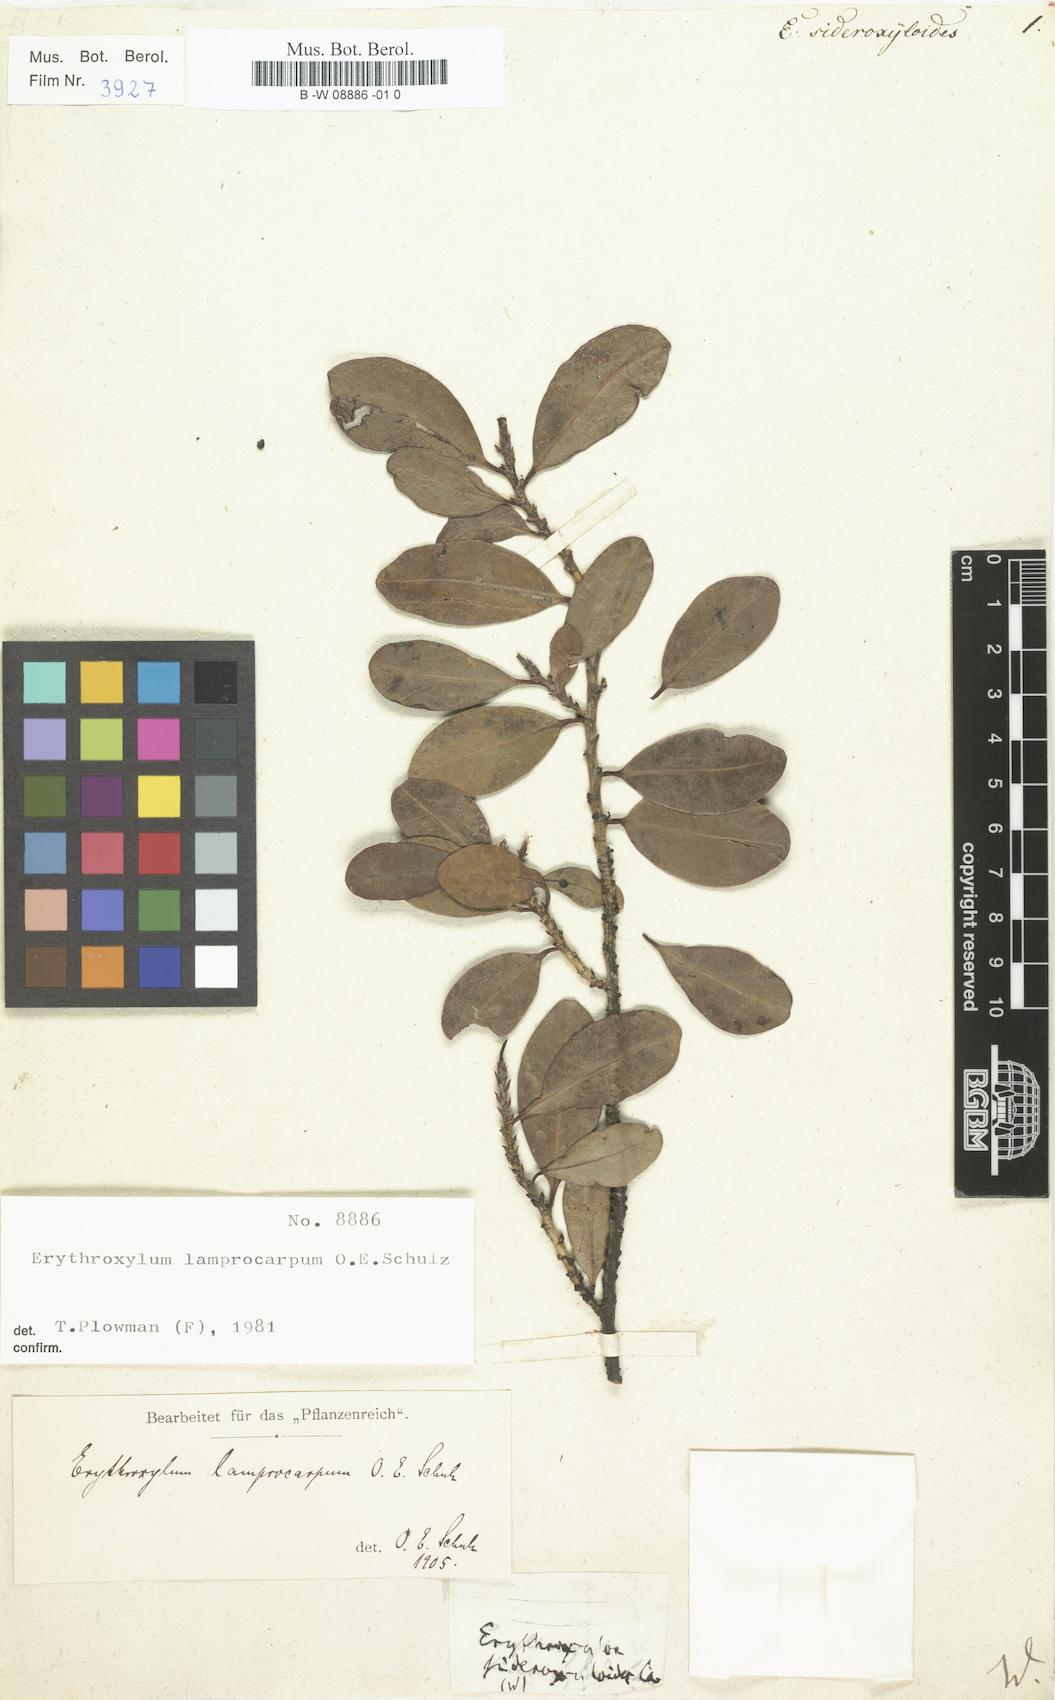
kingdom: Plantae
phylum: Tracheophyta
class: Magnoliopsida
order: Malpighiales
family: Erythroxylaceae
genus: Erythroxylum
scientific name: Erythroxylum sideroxyloides
